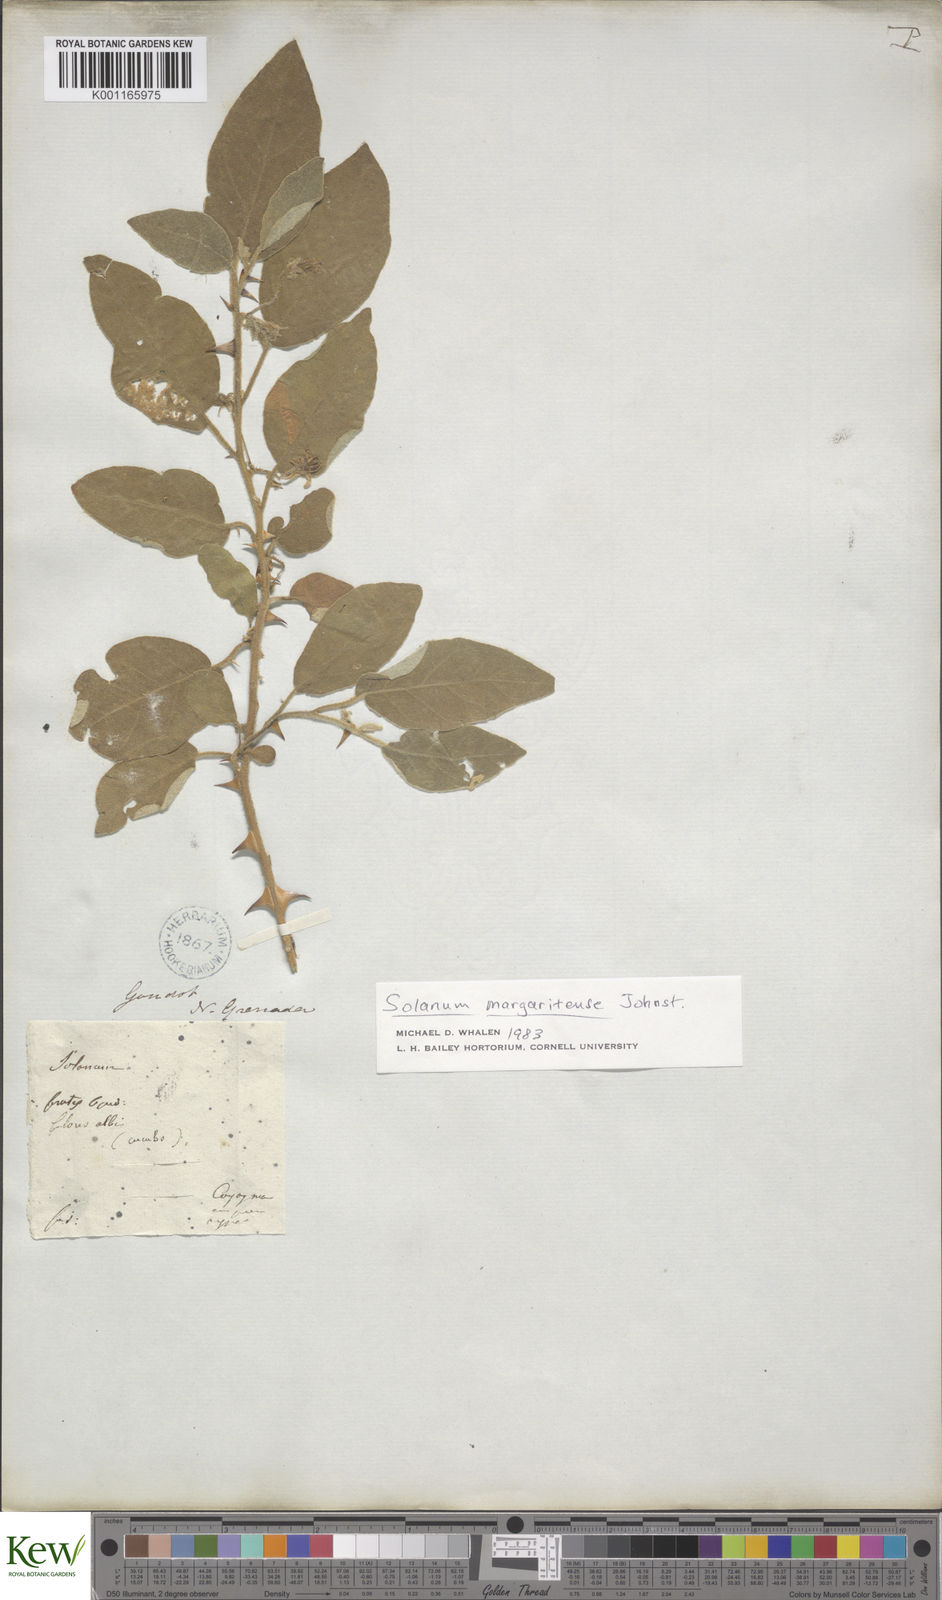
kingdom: Plantae
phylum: Tracheophyta
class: Magnoliopsida
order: Solanales
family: Solanaceae
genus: Solanum
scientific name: Solanum stellatiglandulosum
